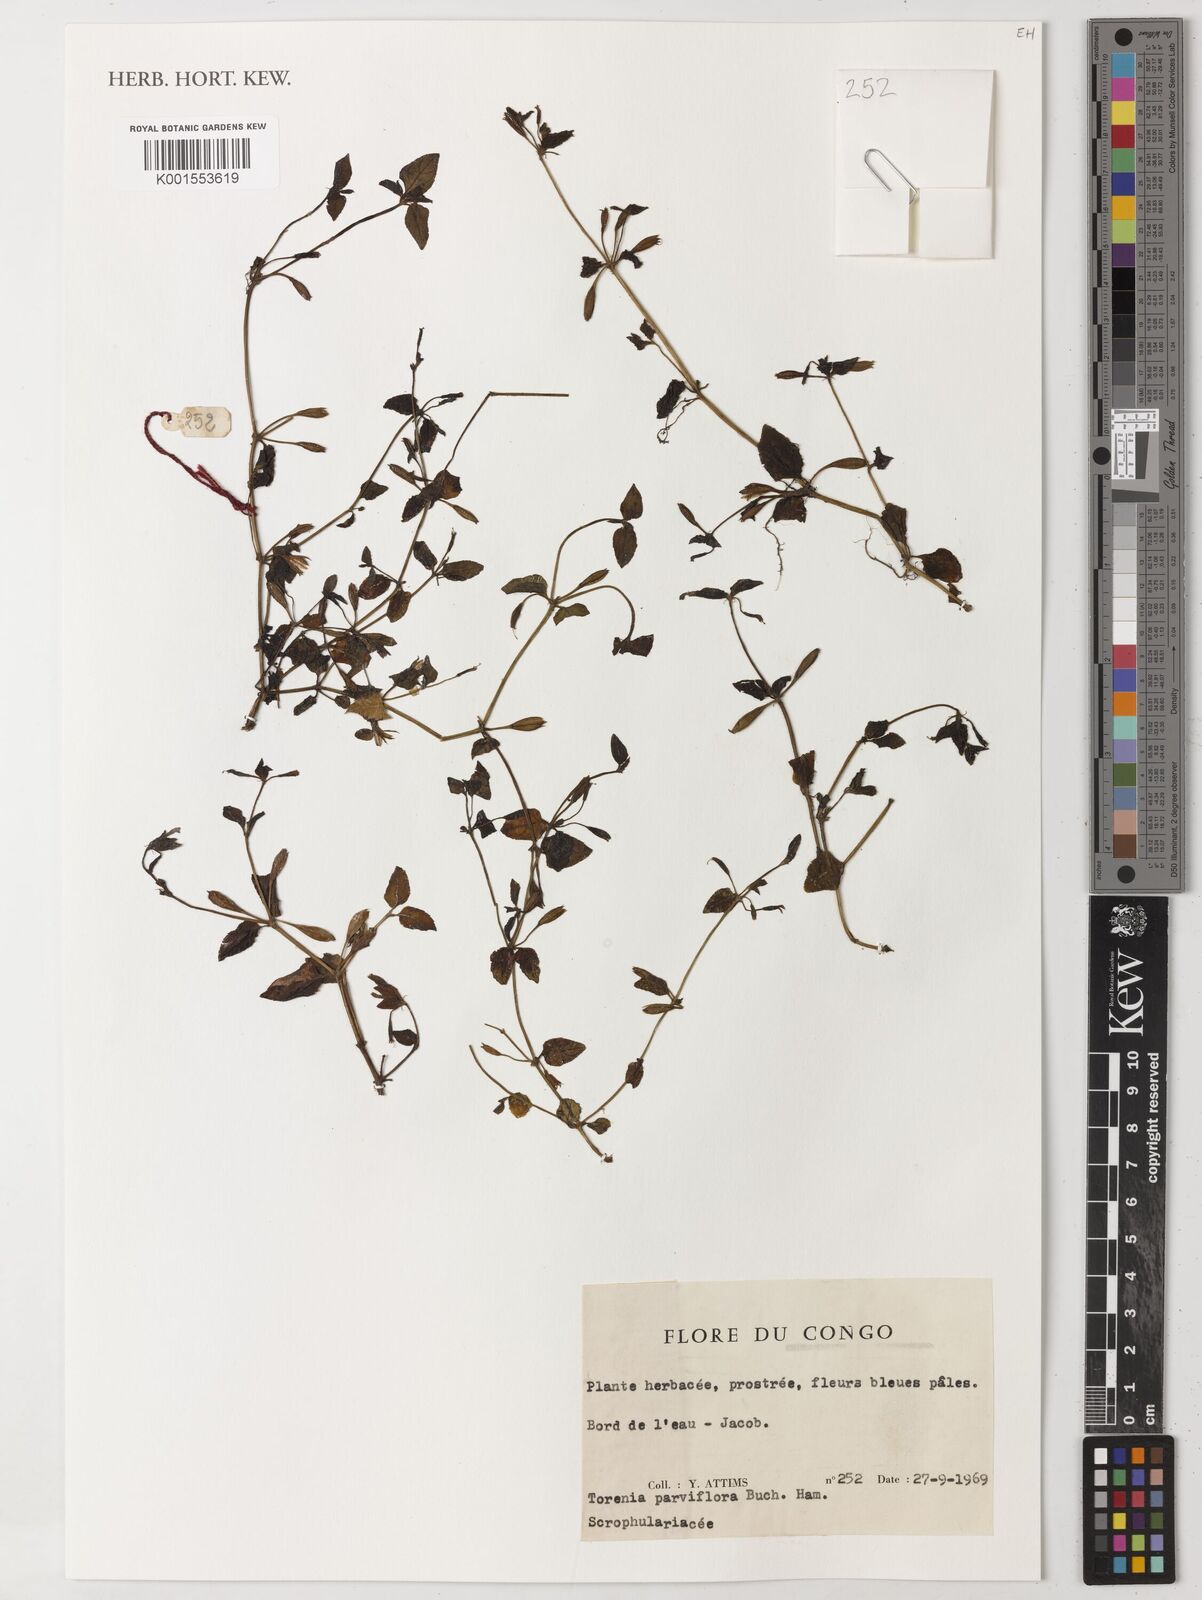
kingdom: Plantae
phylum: Tracheophyta
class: Magnoliopsida
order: Lamiales
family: Linderniaceae
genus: Torenia
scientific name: Torenia
